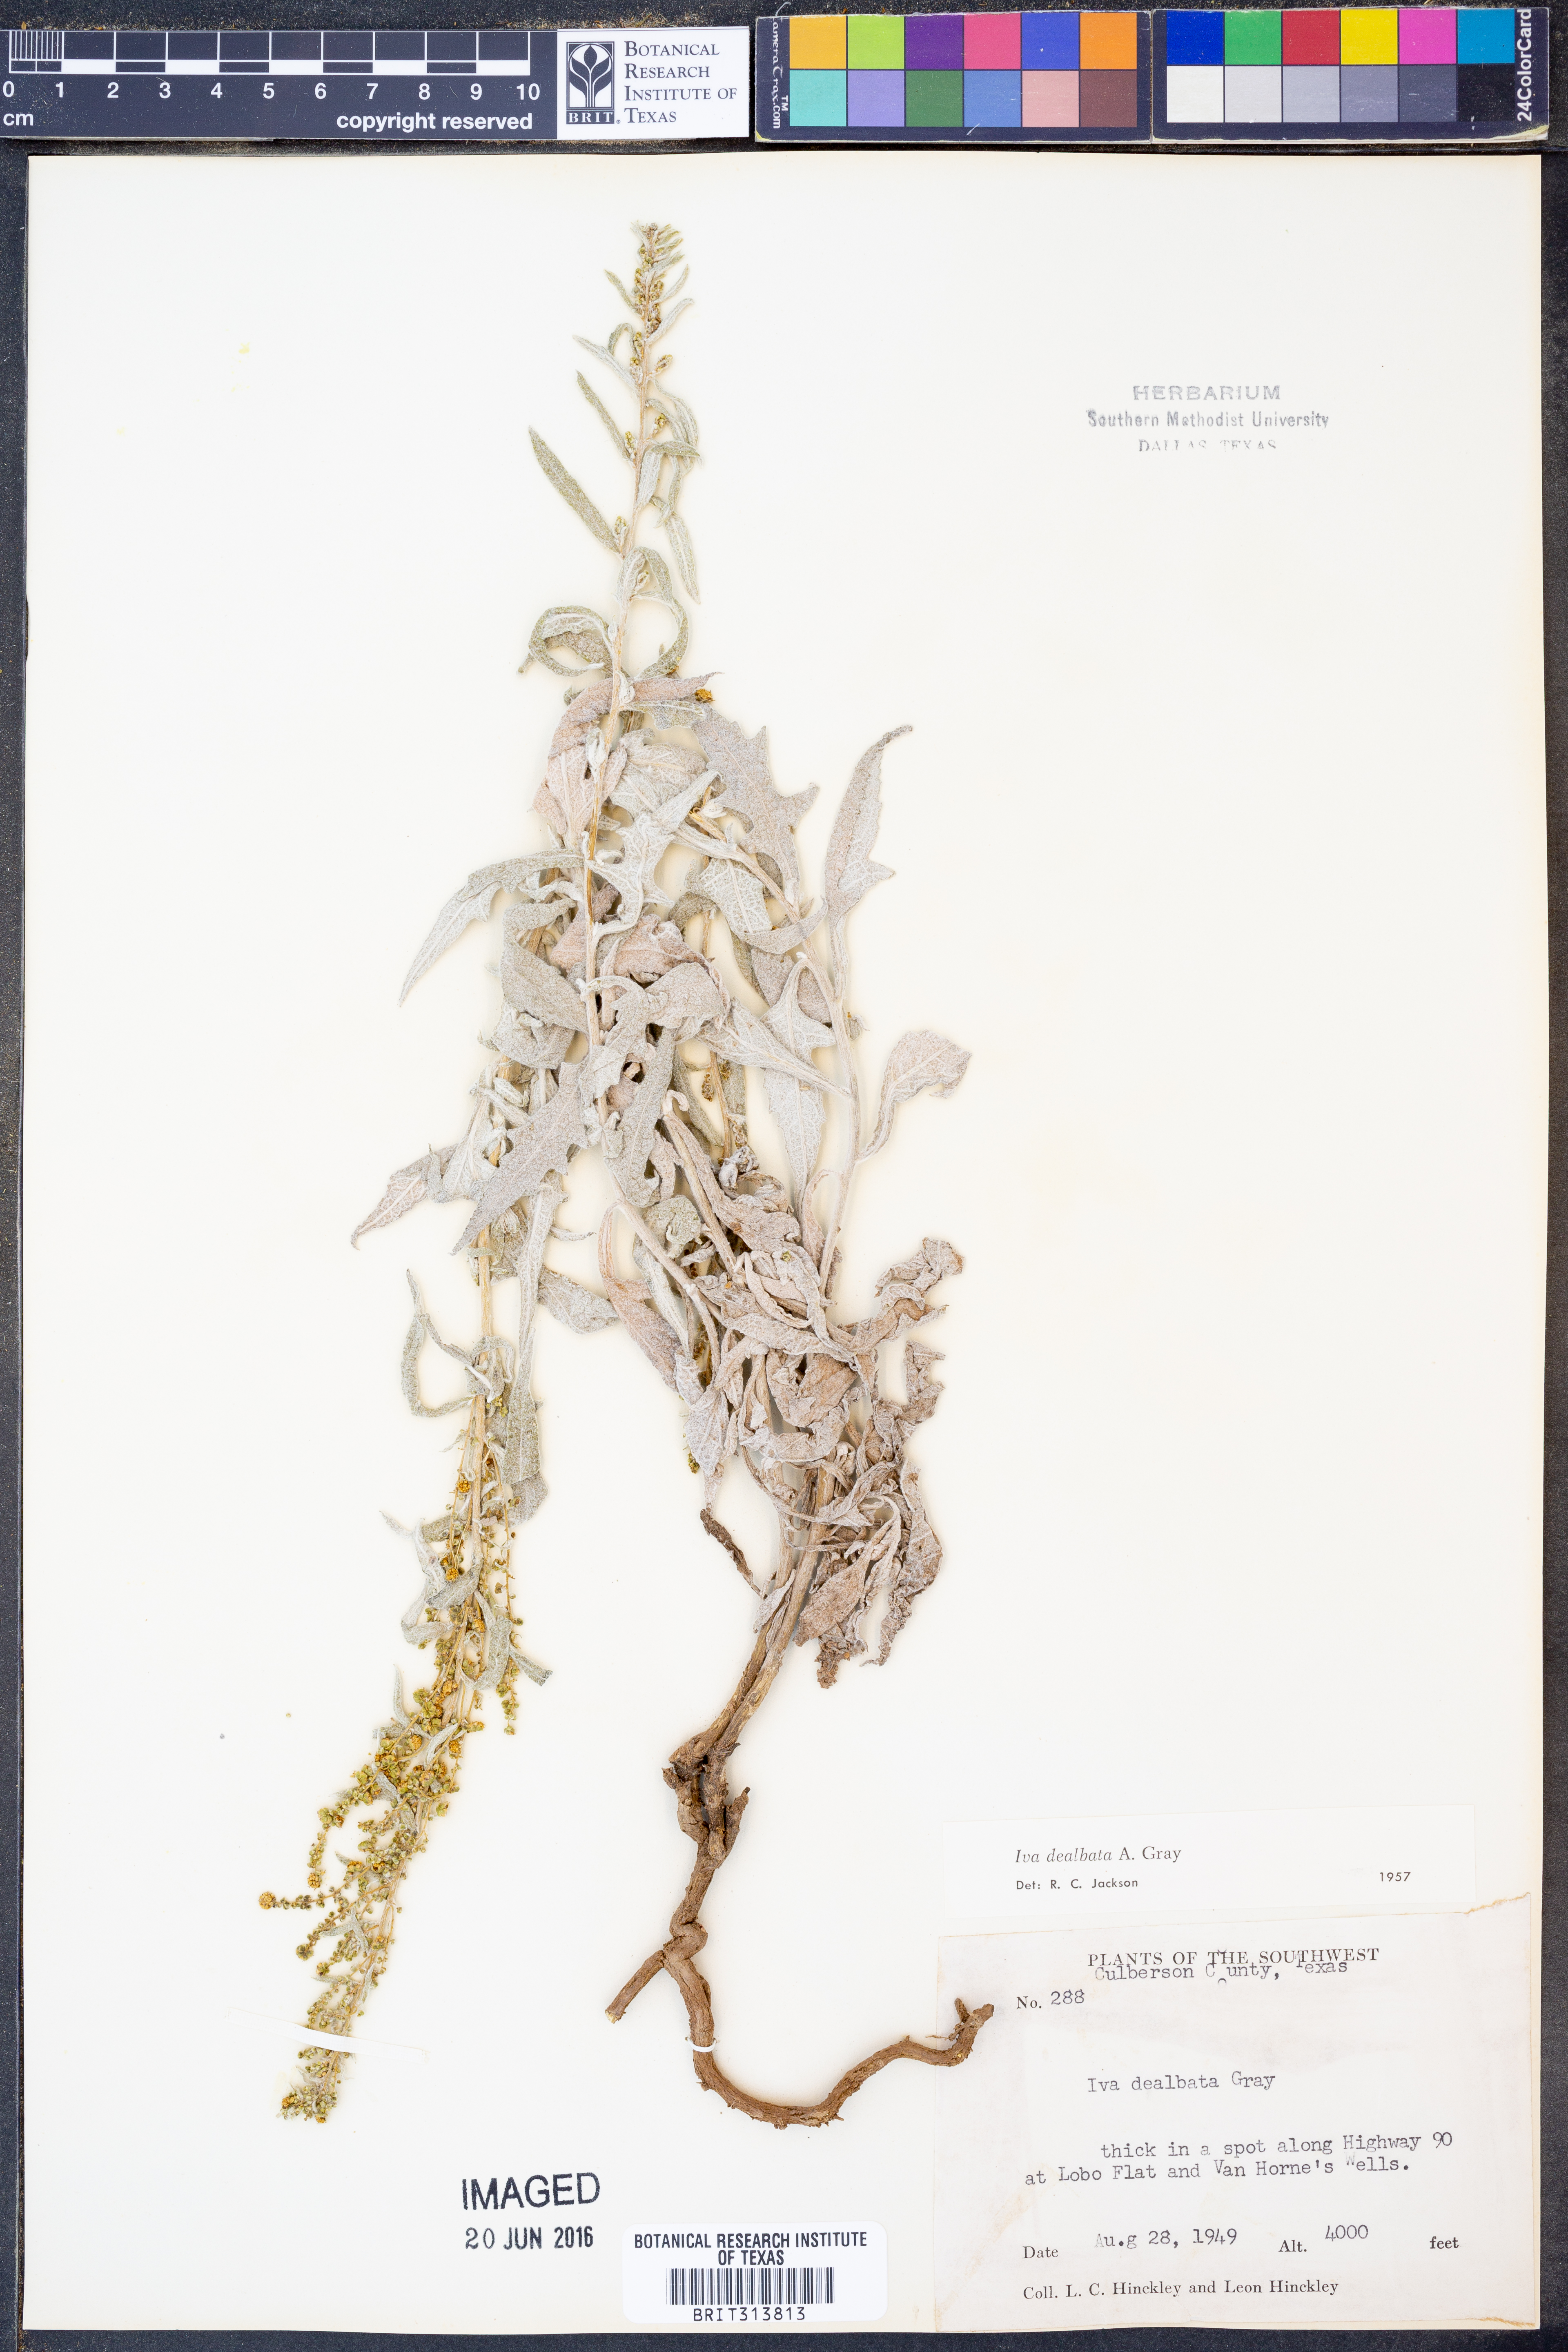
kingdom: Plantae
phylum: Tracheophyta
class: Magnoliopsida
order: Asterales
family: Asteraceae
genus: Euphrosyne
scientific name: Euphrosyne dealbata
